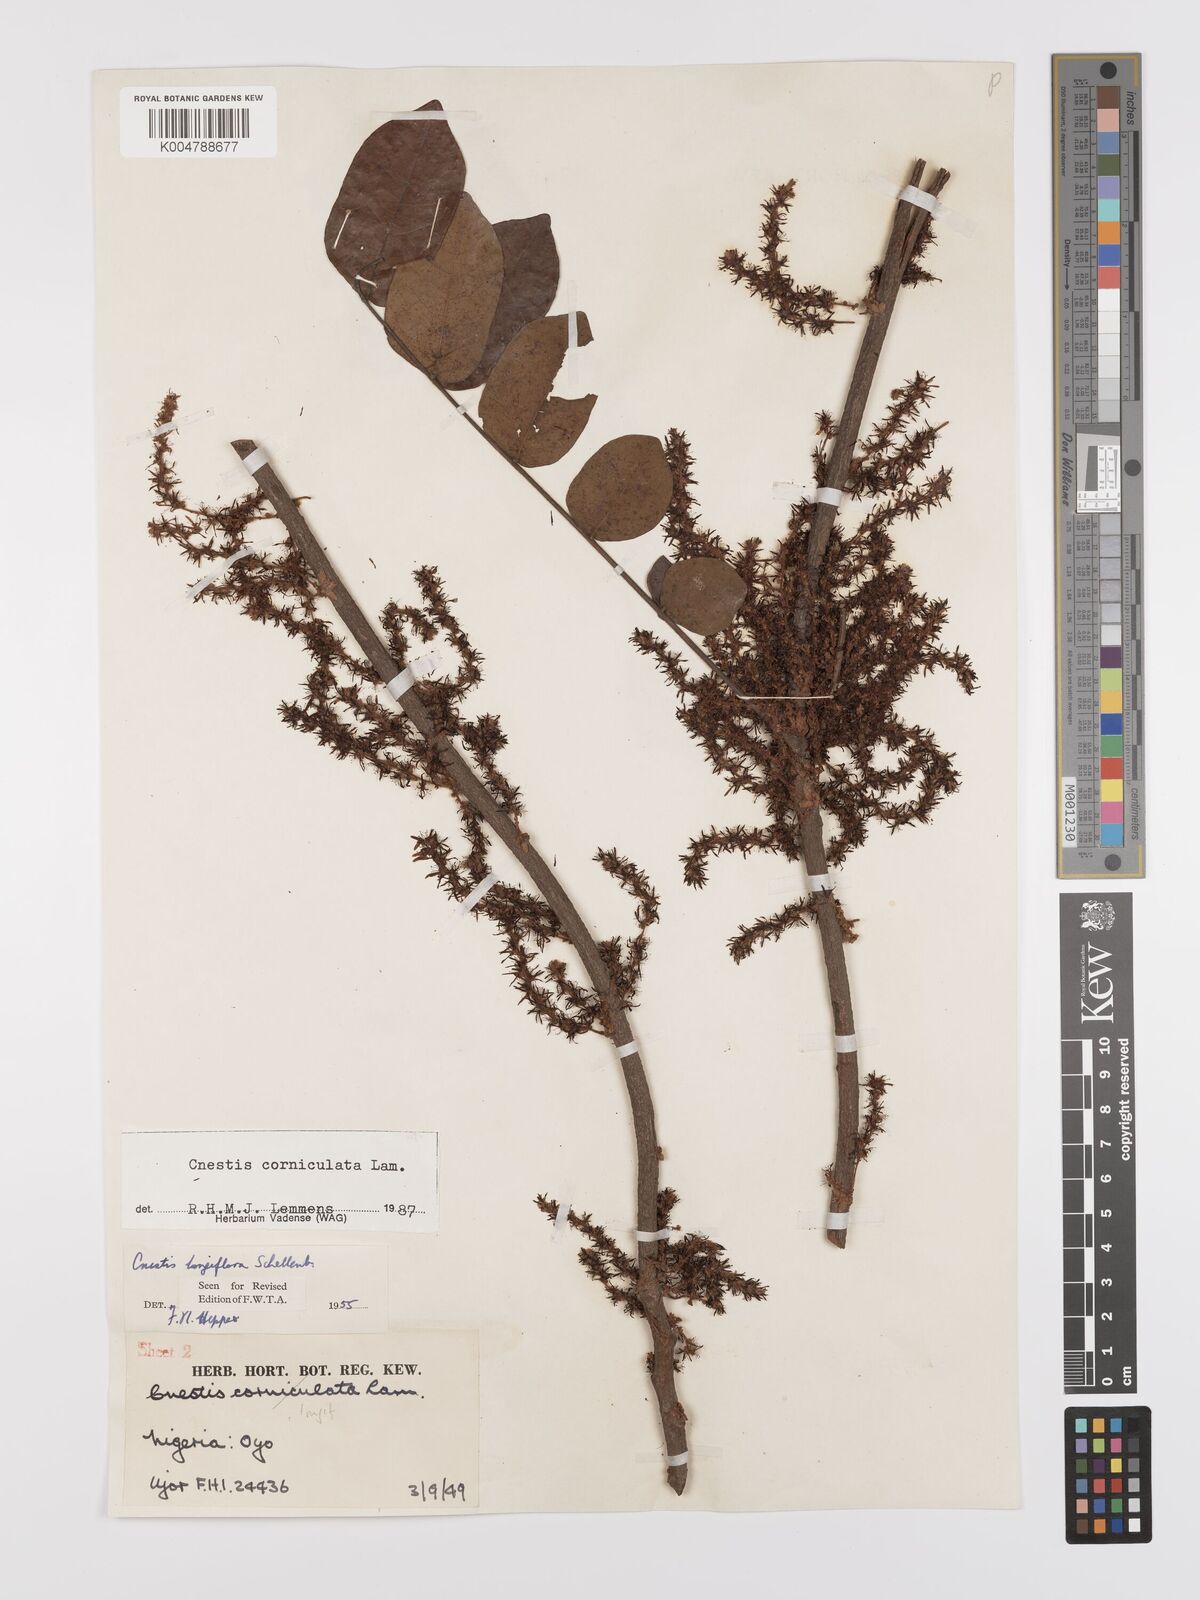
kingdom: Plantae
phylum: Tracheophyta
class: Magnoliopsida
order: Oxalidales
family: Connaraceae
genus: Cnestis
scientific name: Cnestis corniculata
